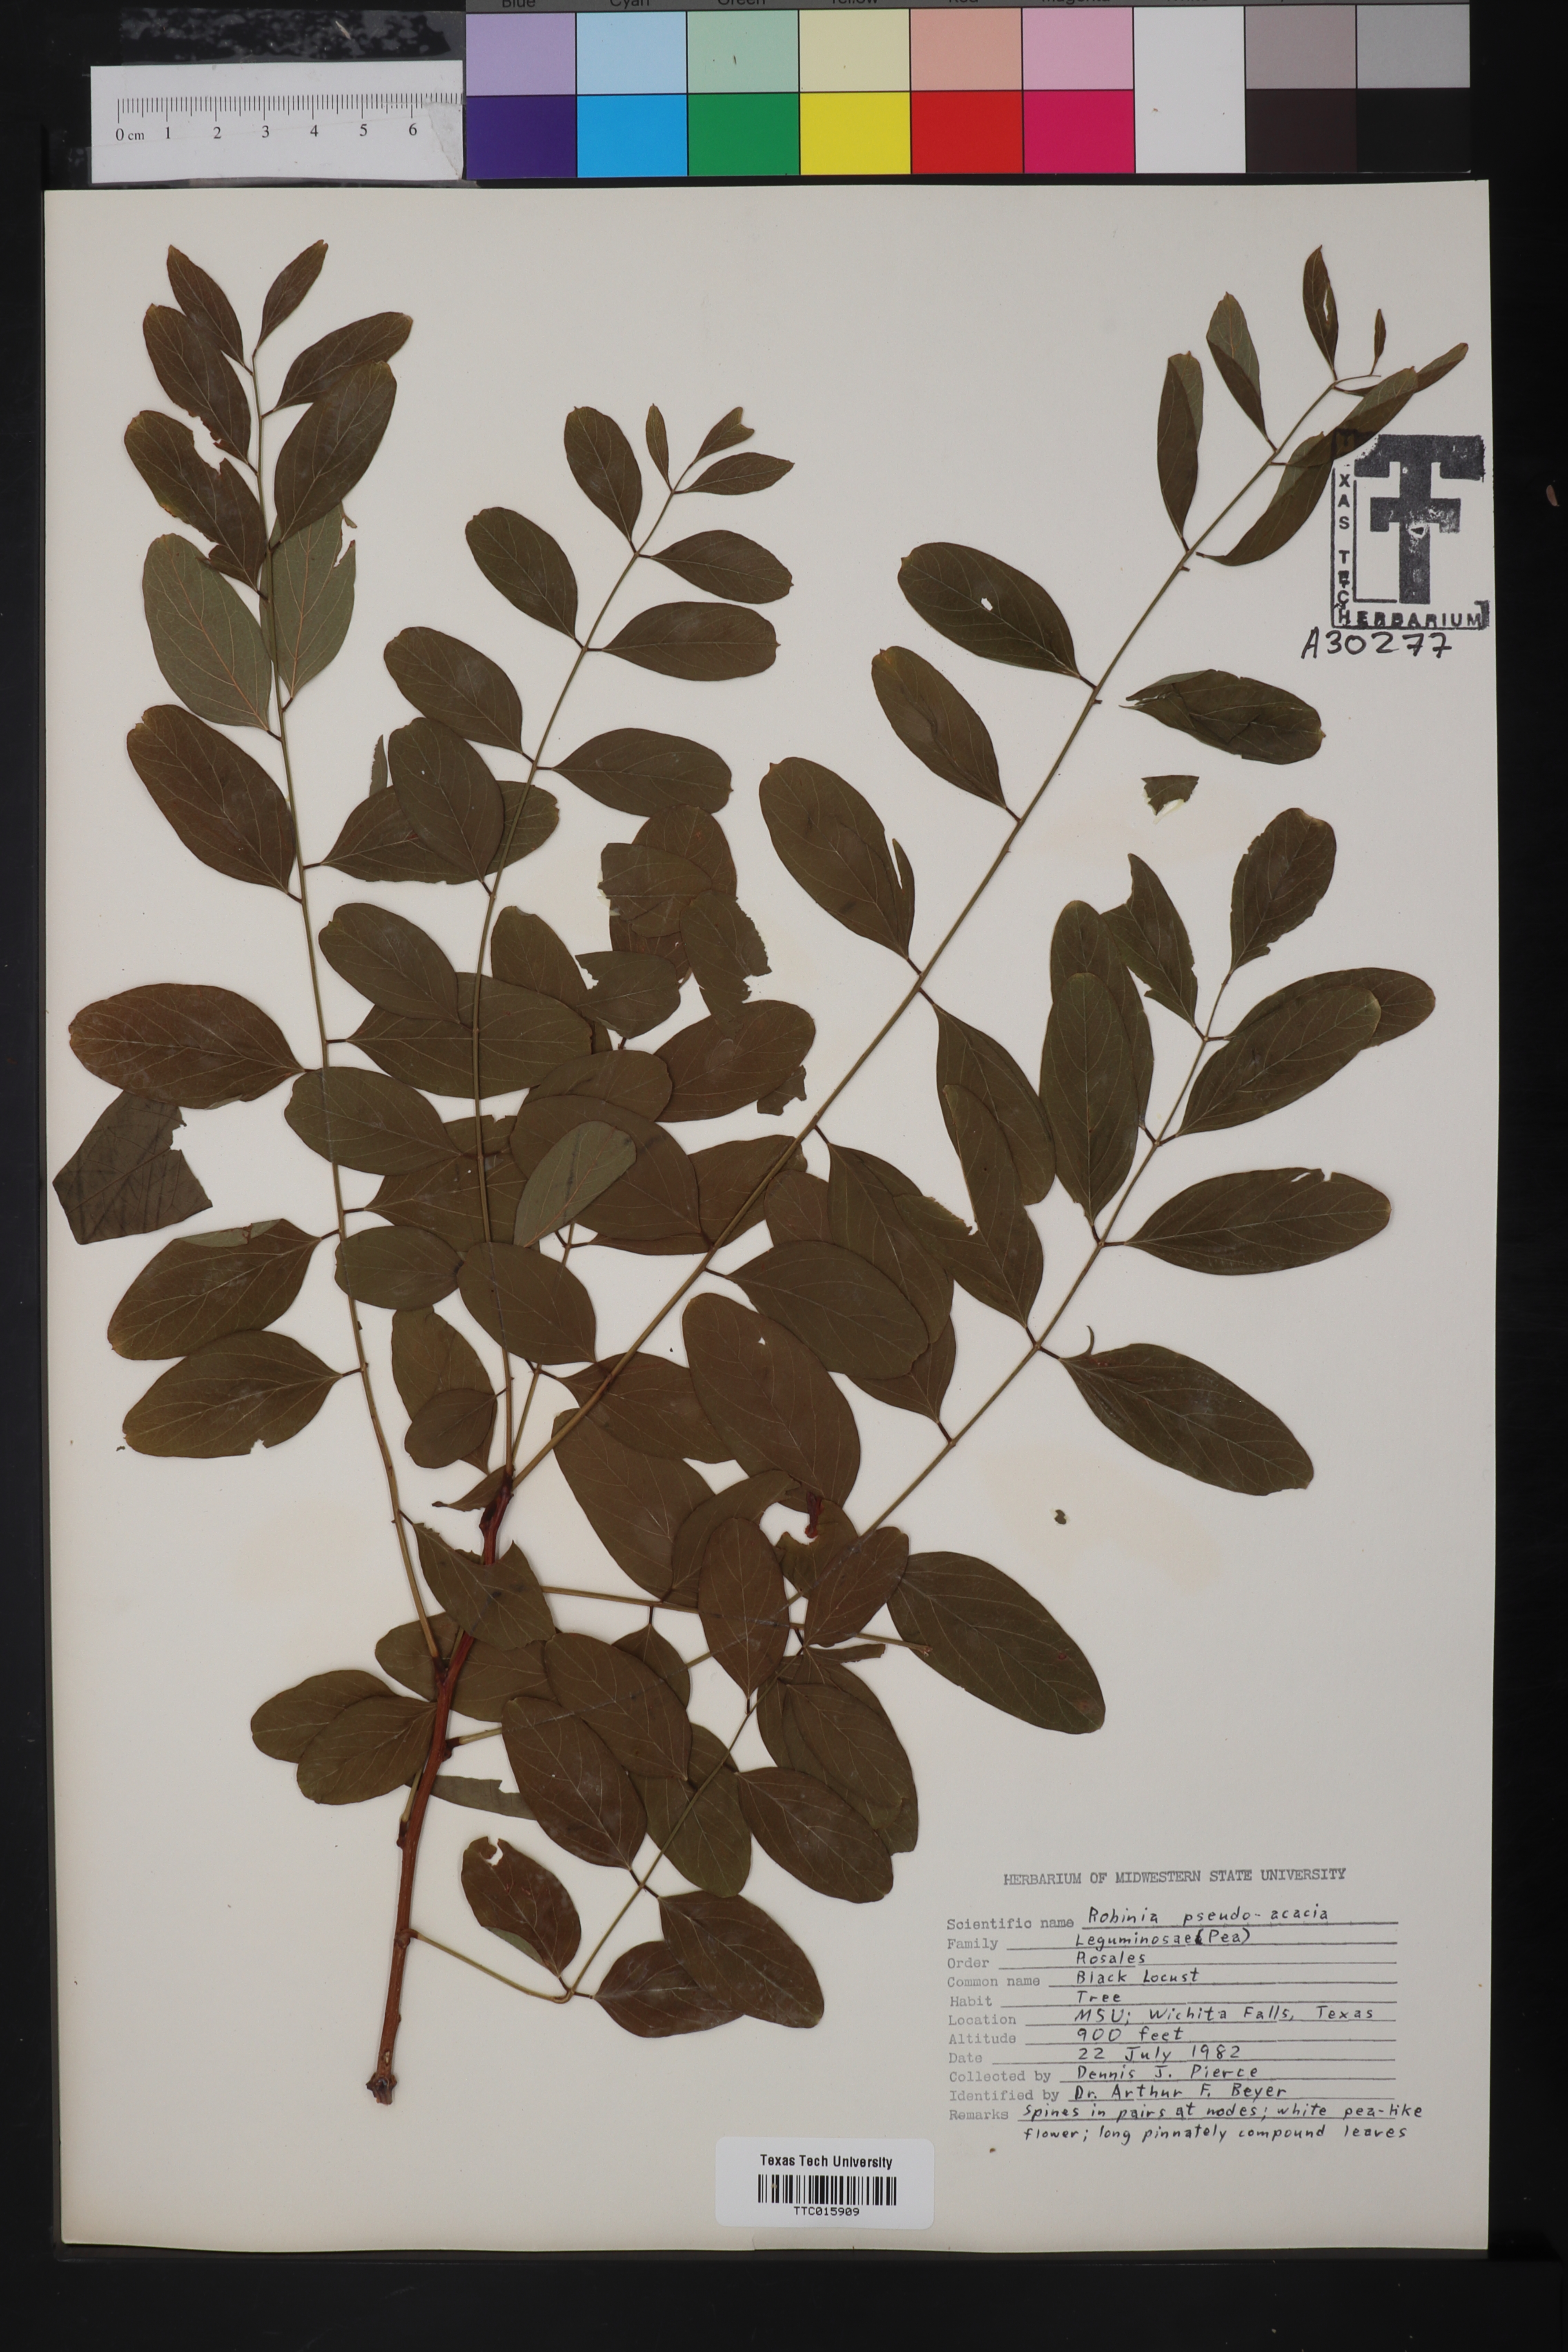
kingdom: Plantae
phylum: Tracheophyta
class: Magnoliopsida
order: Fabales
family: Fabaceae
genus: Robinia
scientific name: Robinia pseudoacacia
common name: Black locust
